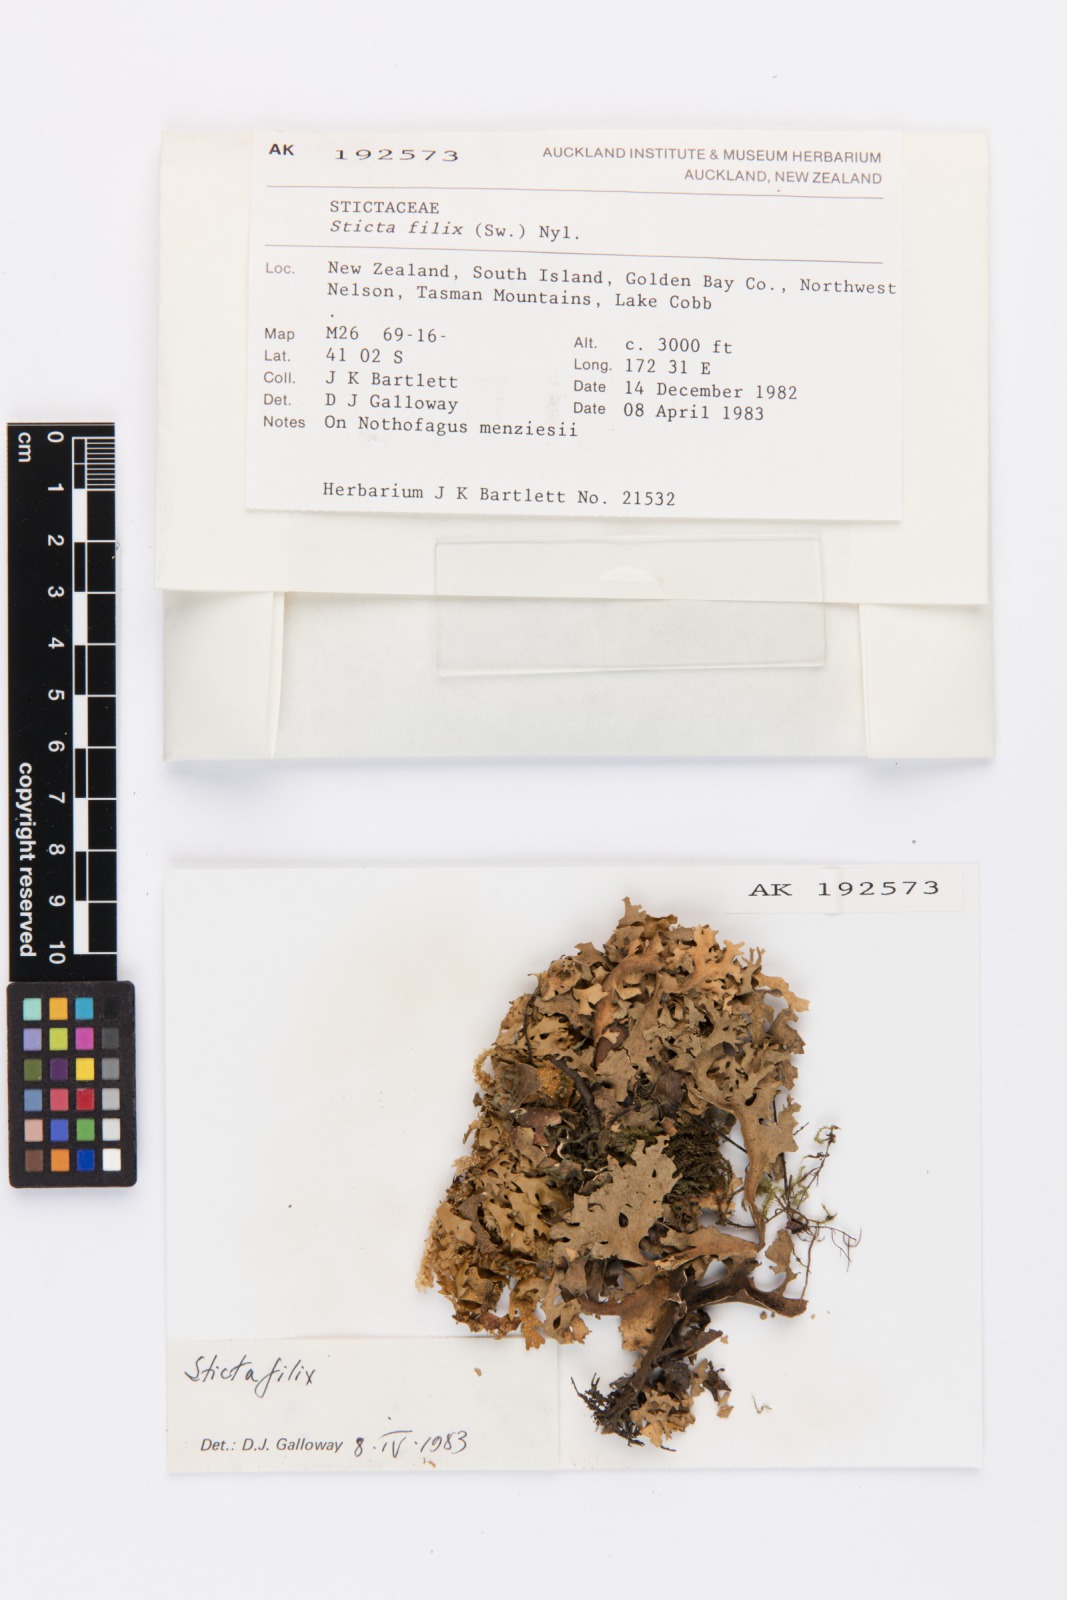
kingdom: Fungi
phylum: Ascomycota
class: Lecanoromycetes
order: Peltigerales
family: Lobariaceae
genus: Sticta
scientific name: Sticta filix
